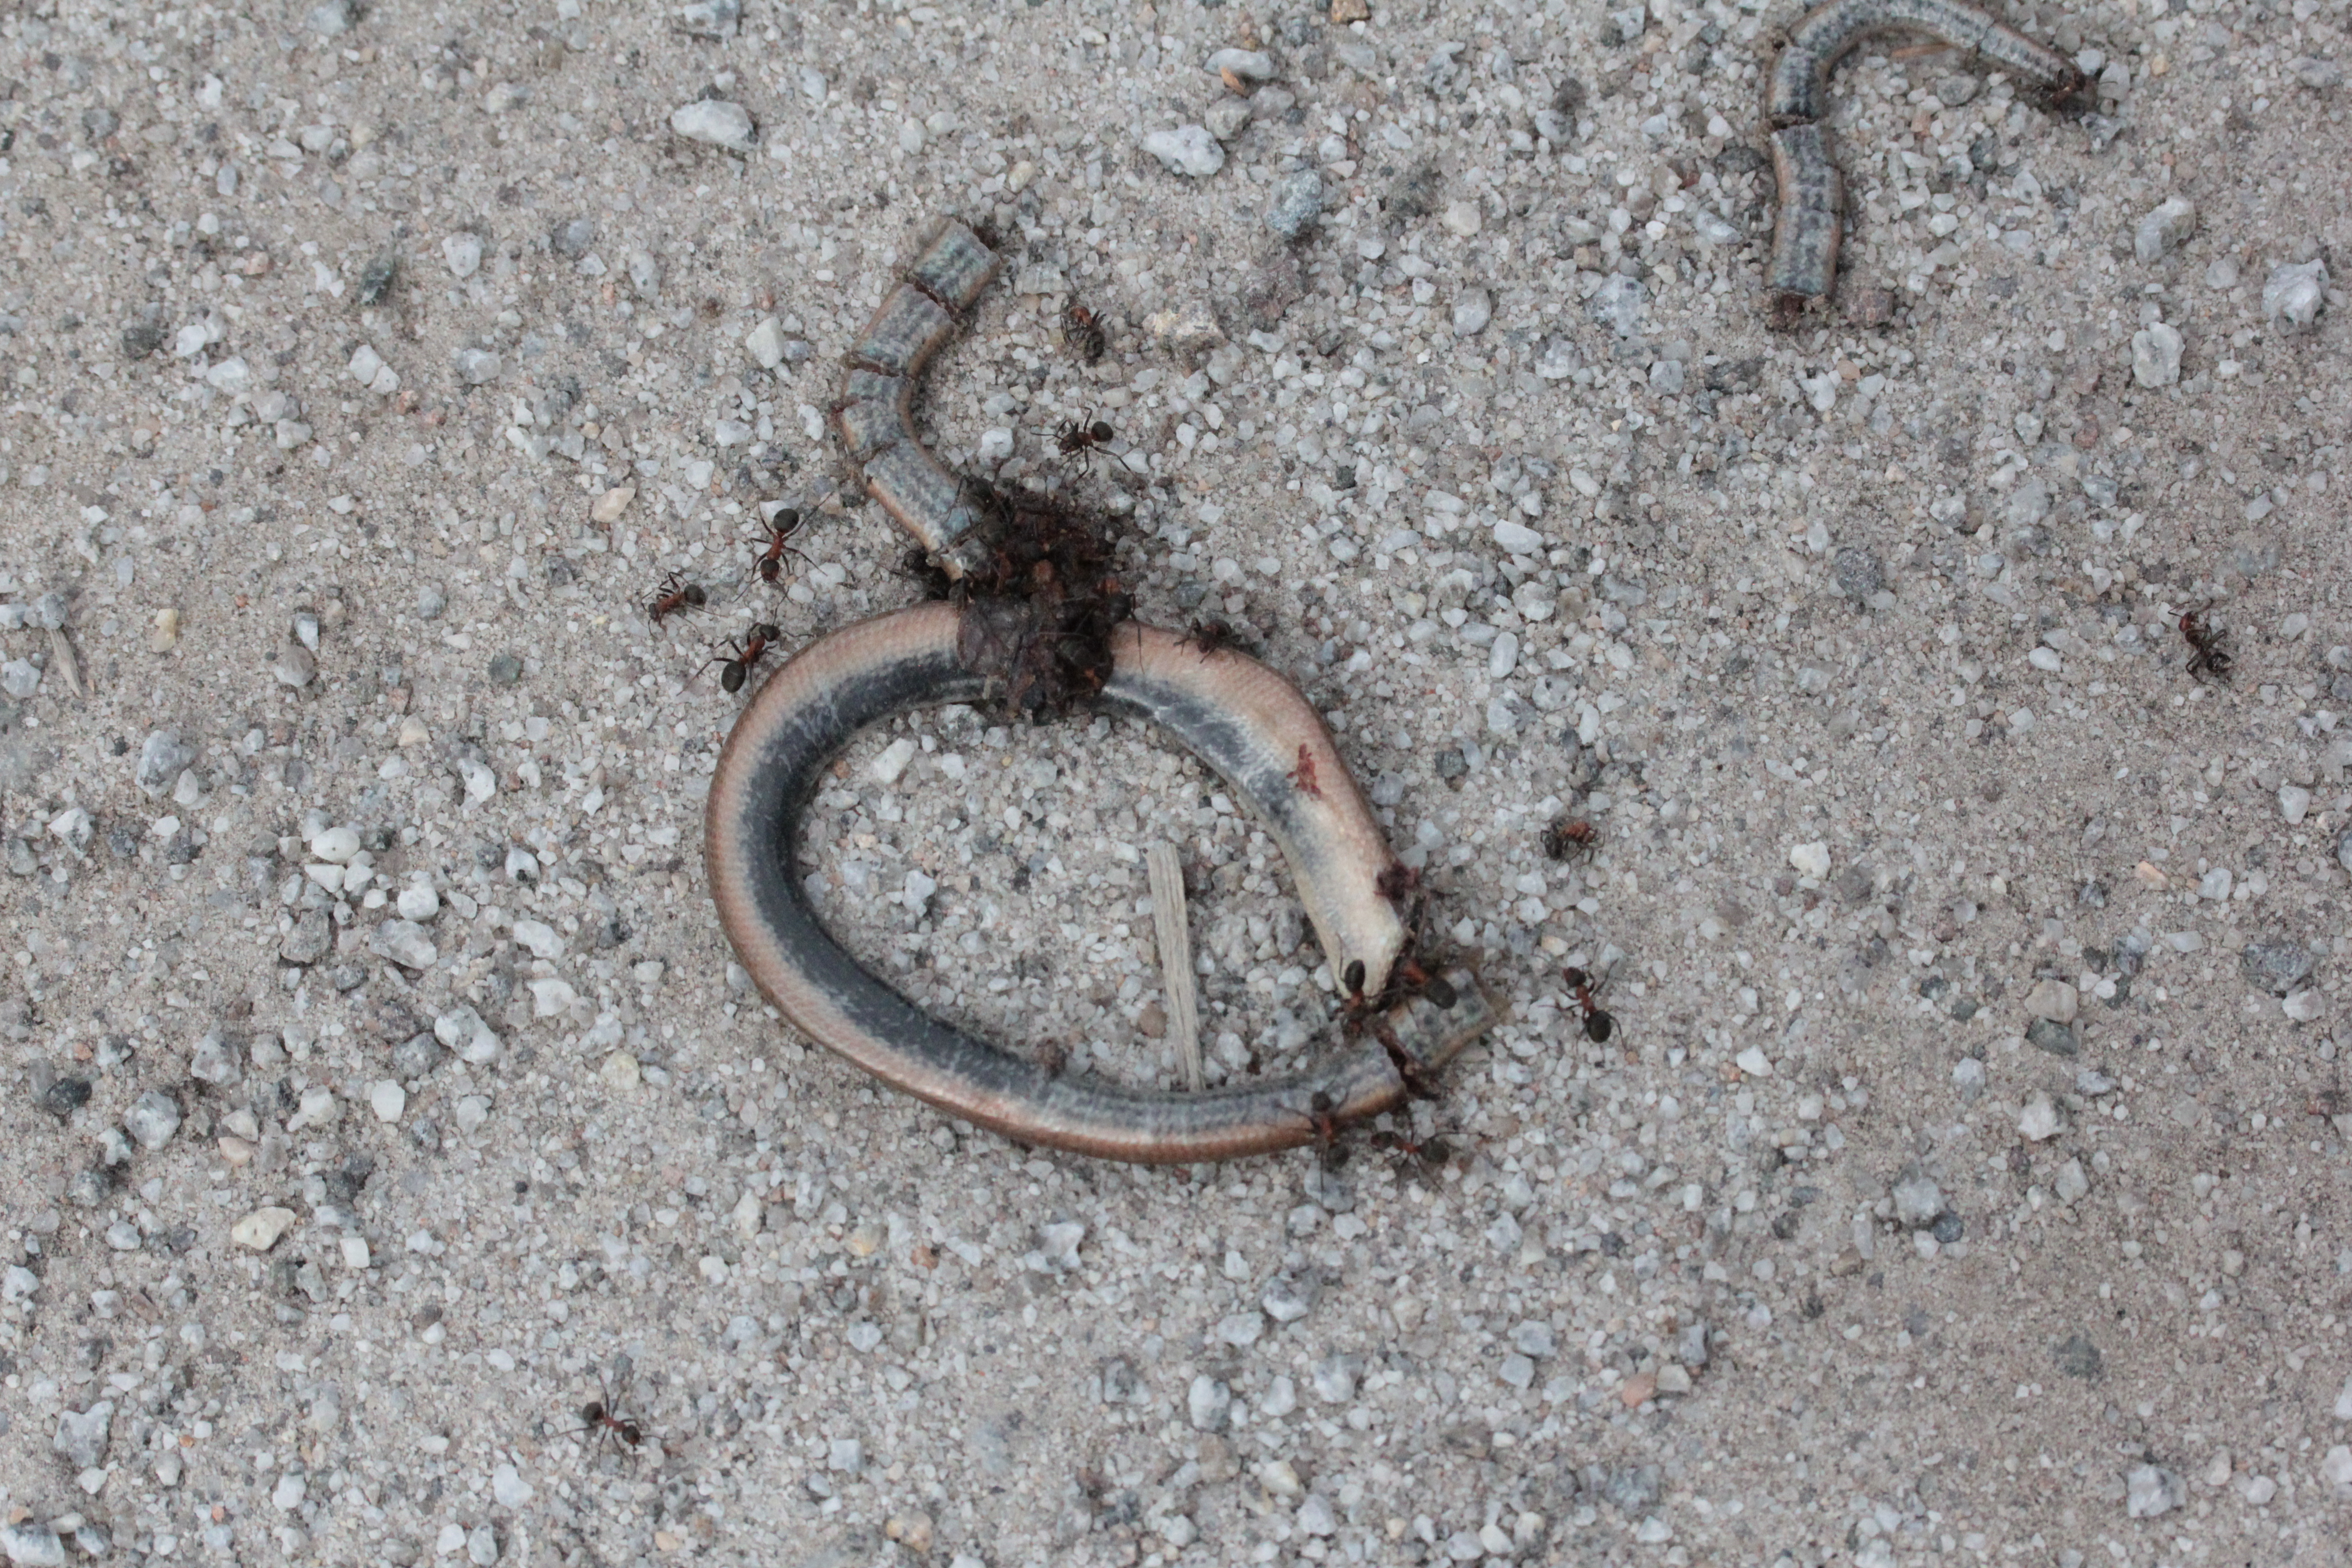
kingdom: Animalia
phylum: Chordata
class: Squamata
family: Anguidae
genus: Anguis
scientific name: Anguis colchica
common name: Slow worm
